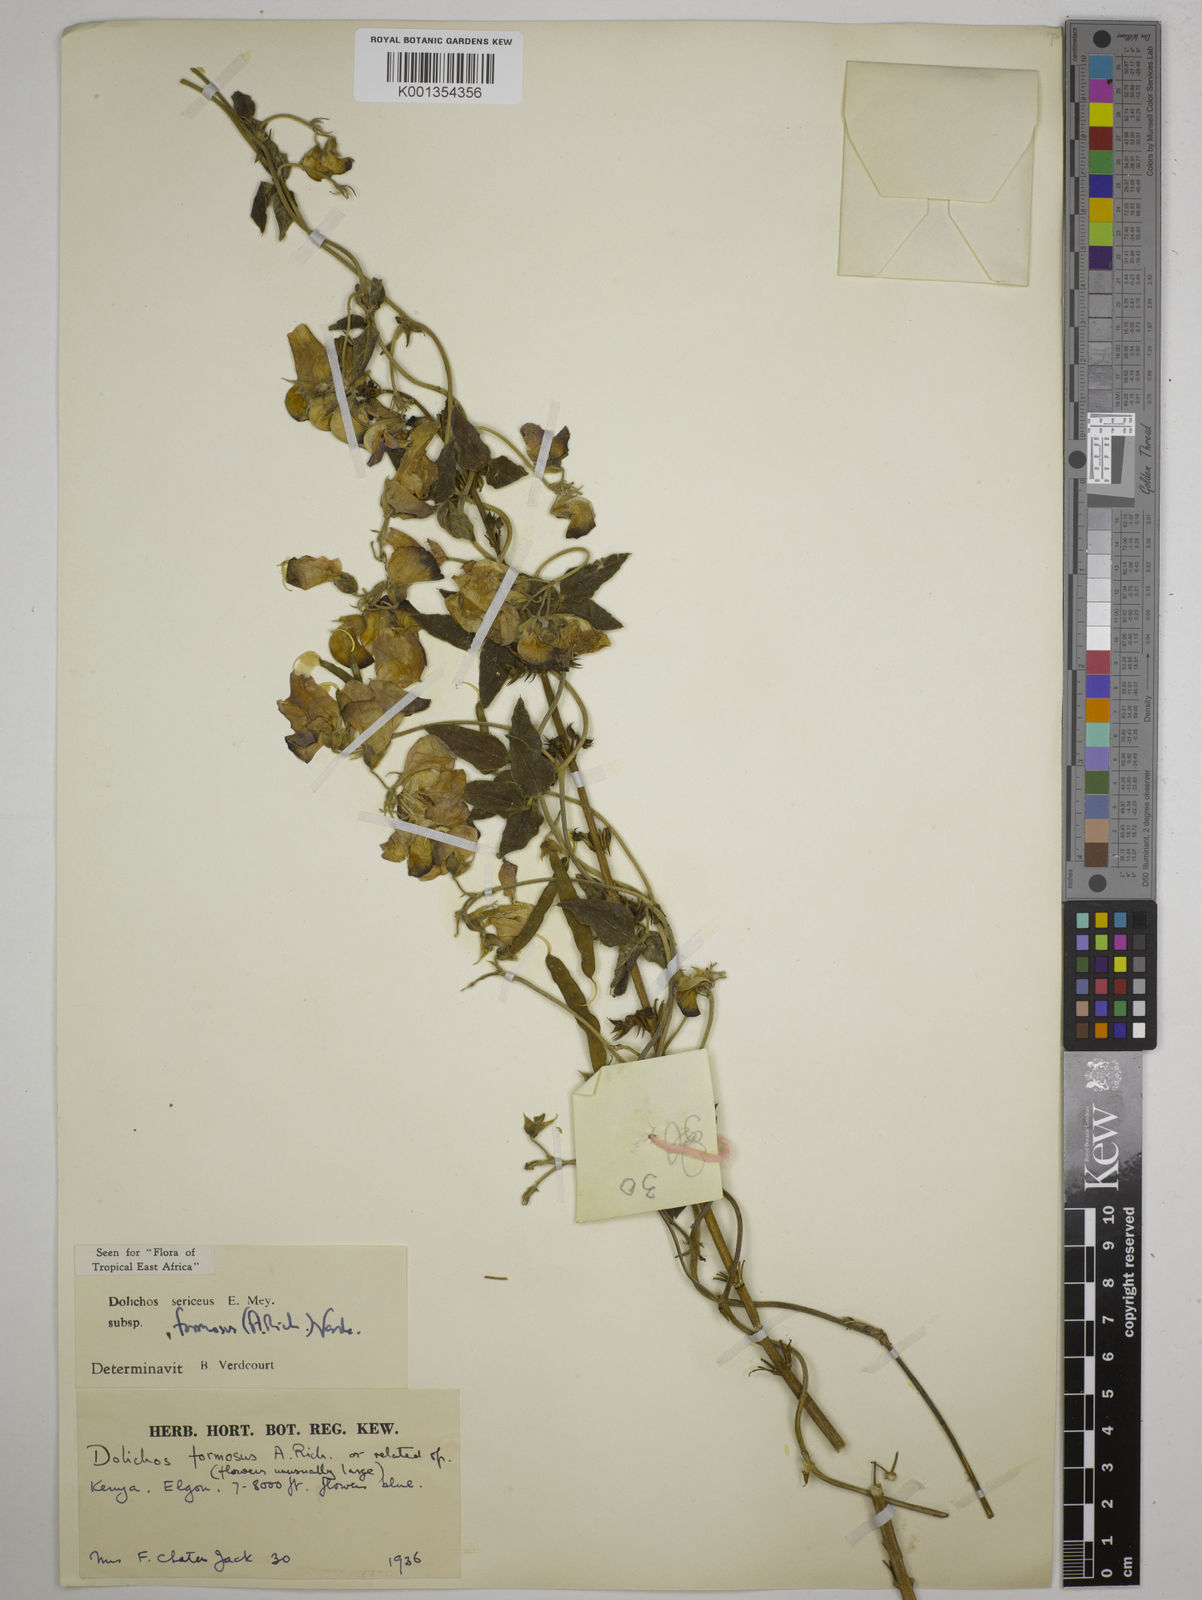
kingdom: Plantae
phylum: Tracheophyta
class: Magnoliopsida
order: Fabales
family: Fabaceae
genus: Dolichos
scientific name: Dolichos
